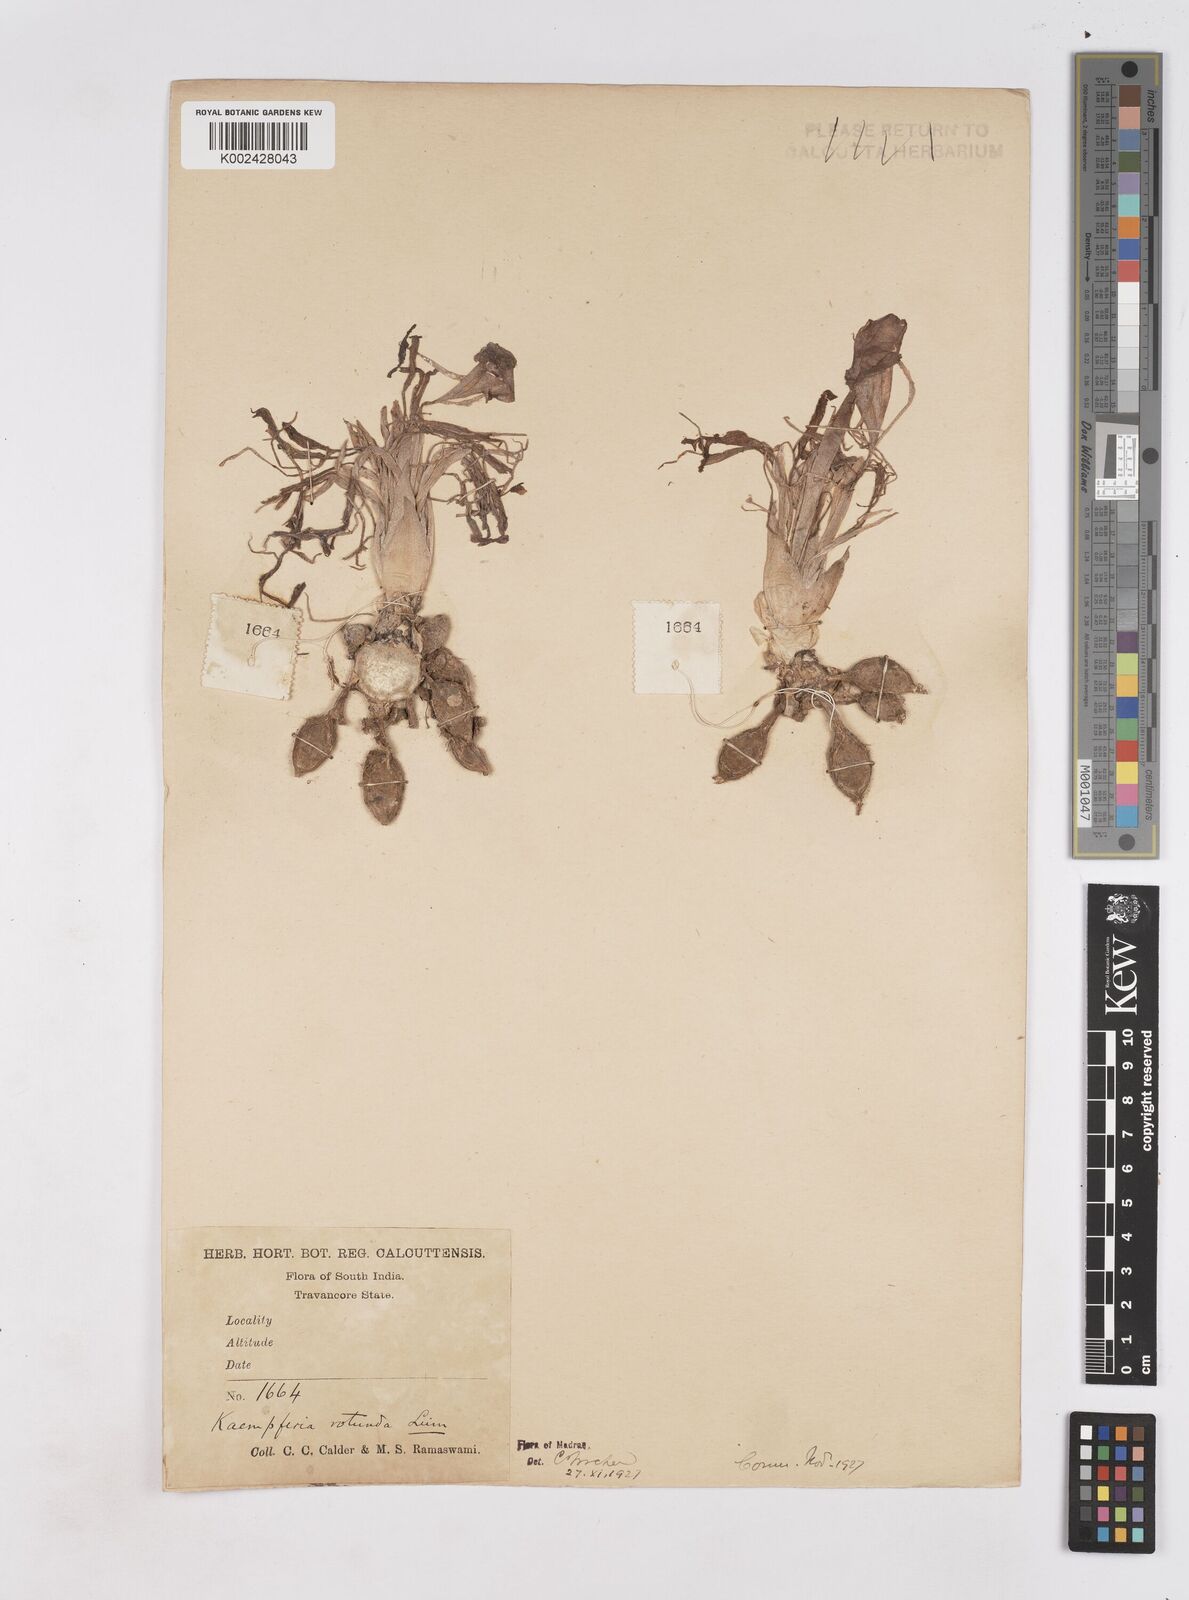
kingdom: Plantae
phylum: Tracheophyta
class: Liliopsida
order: Zingiberales
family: Zingiberaceae
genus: Kaempferia
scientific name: Kaempferia rotunda
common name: Tropical-crocus
